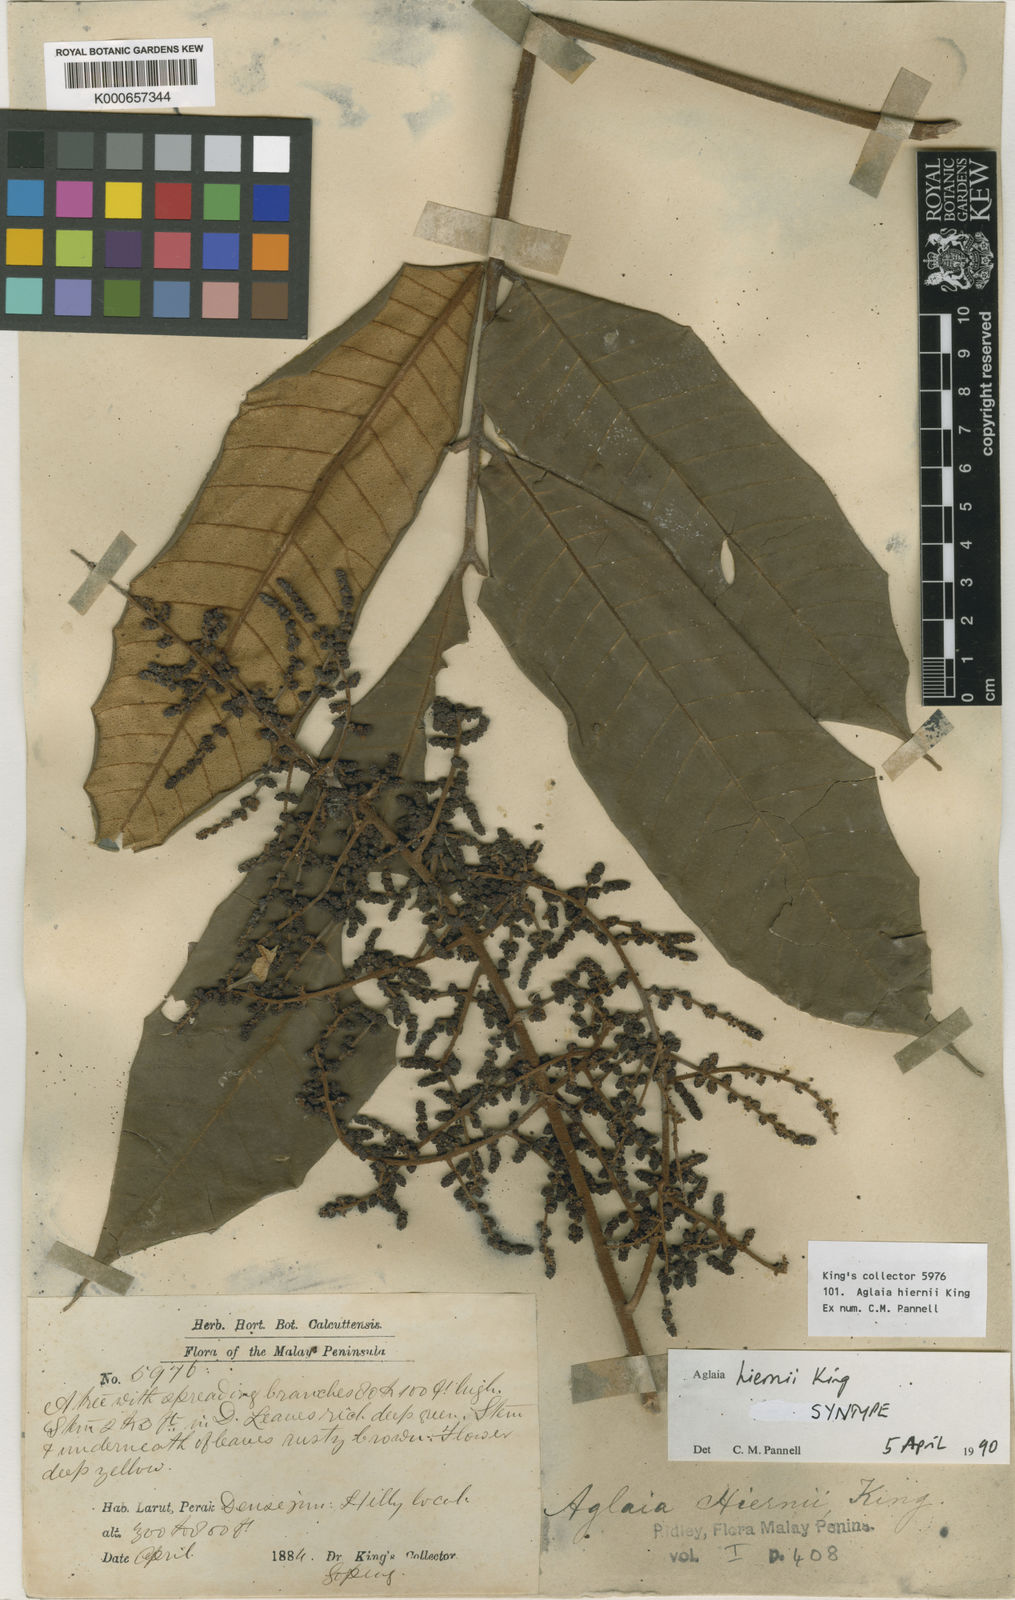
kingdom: Plantae
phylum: Tracheophyta
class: Magnoliopsida
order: Sapindales
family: Meliaceae
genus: Aglaia
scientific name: Aglaia hiernii
